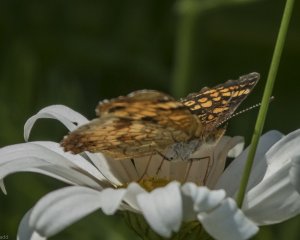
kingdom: Animalia
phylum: Arthropoda
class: Insecta
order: Lepidoptera
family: Nymphalidae
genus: Phyciodes
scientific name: Phyciodes tharos
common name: Northern Crescent
